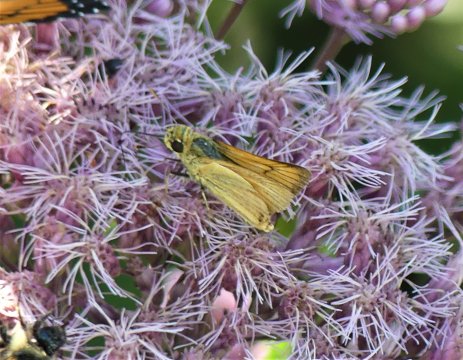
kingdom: Animalia
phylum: Arthropoda
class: Insecta
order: Lepidoptera
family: Hesperiidae
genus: Atrytone
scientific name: Atrytone delaware
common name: Delaware Skipper
